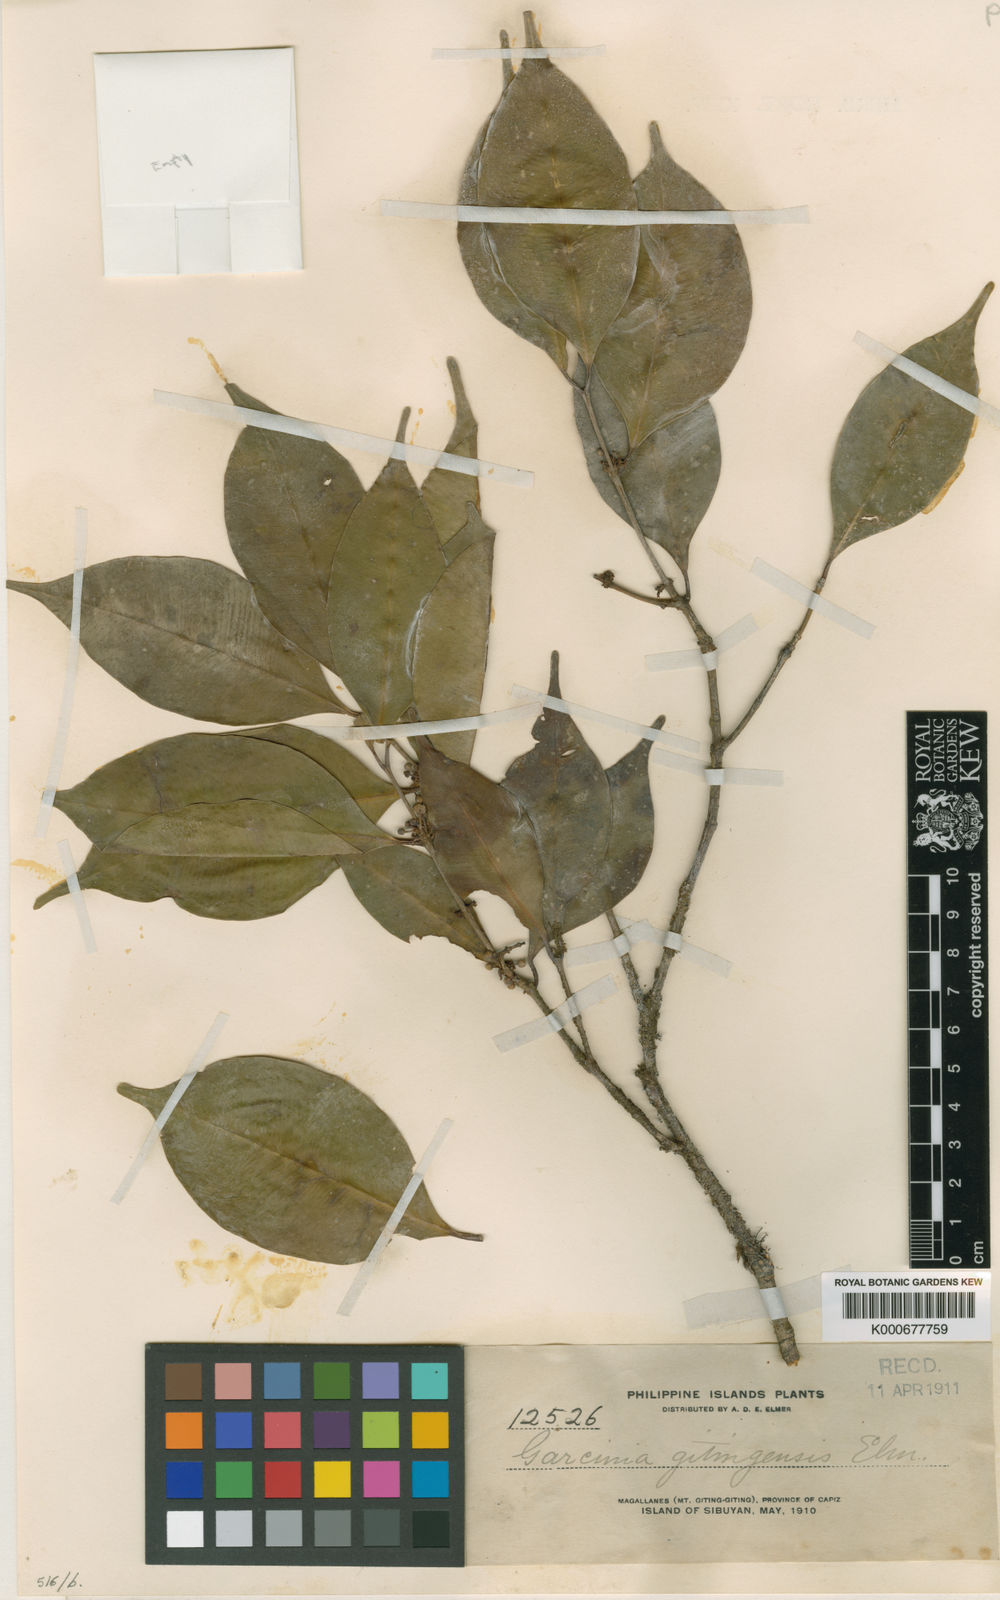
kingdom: Plantae
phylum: Tracheophyta
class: Magnoliopsida
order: Malpighiales
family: Clusiaceae
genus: Garcinia
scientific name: Garcinia brevirostris
